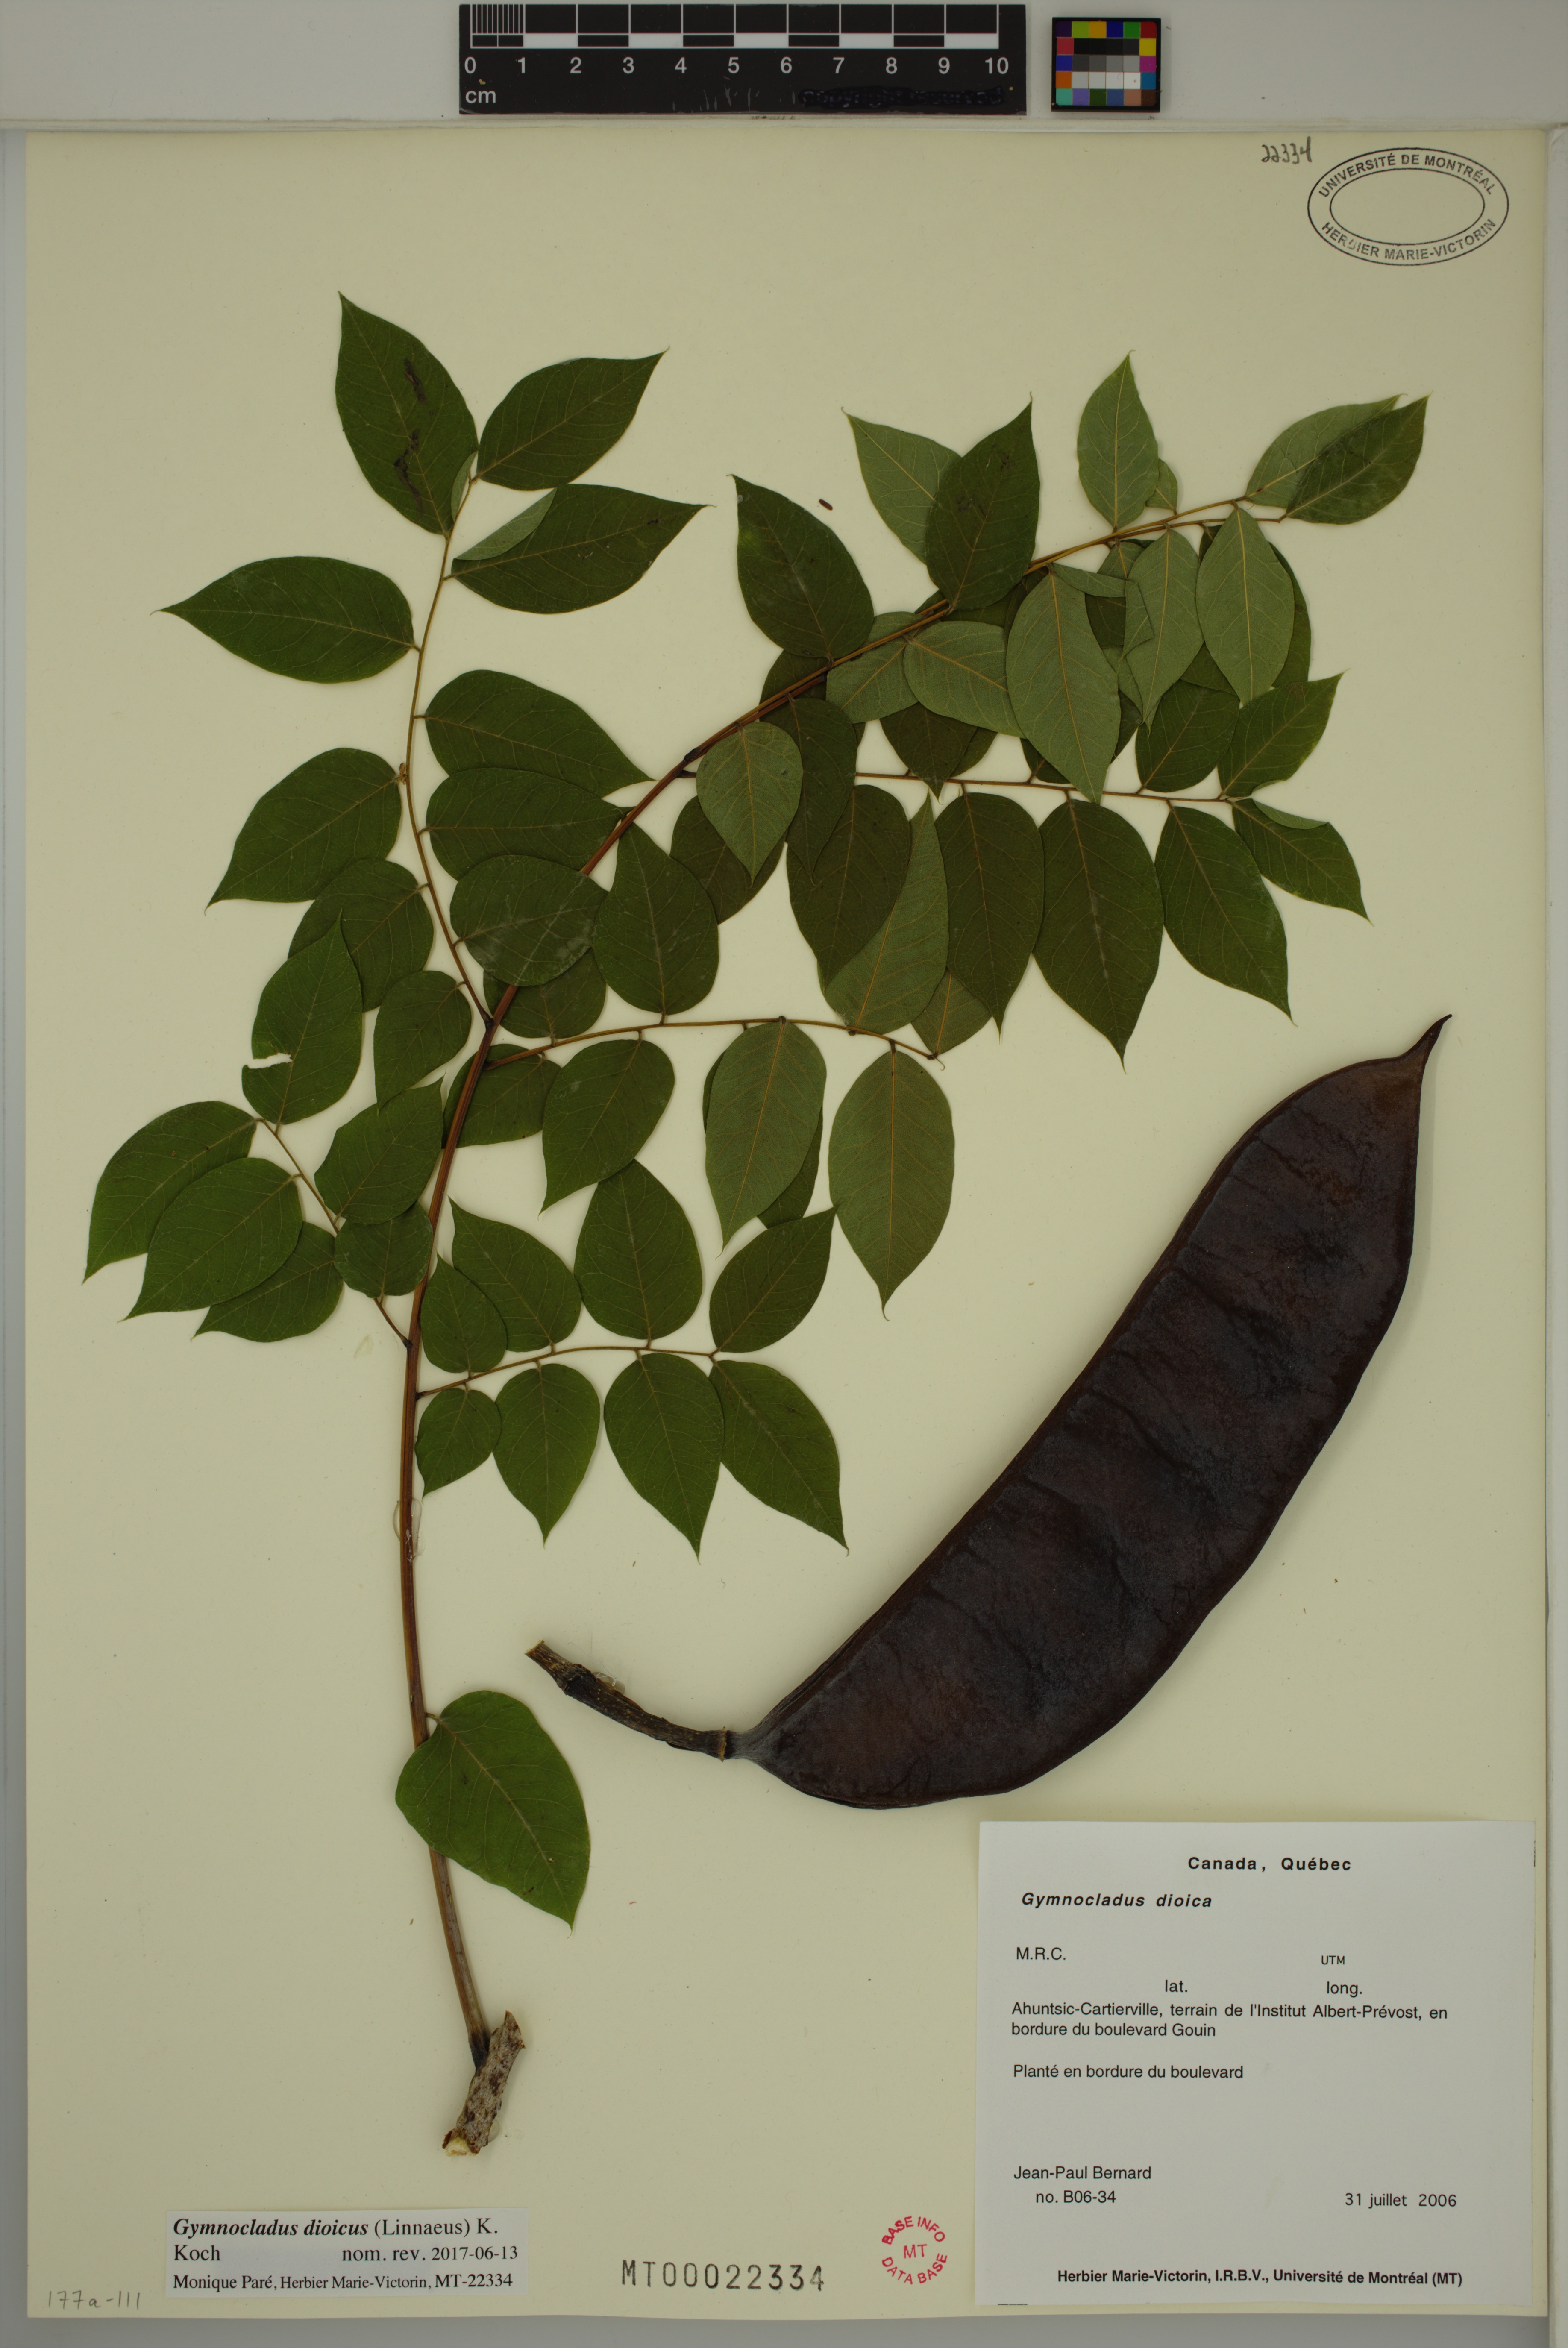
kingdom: Plantae
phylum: Tracheophyta
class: Magnoliopsida
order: Fabales
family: Fabaceae
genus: Gymnocladus
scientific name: Gymnocladus dioicus
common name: Kentucky coffee-tree
